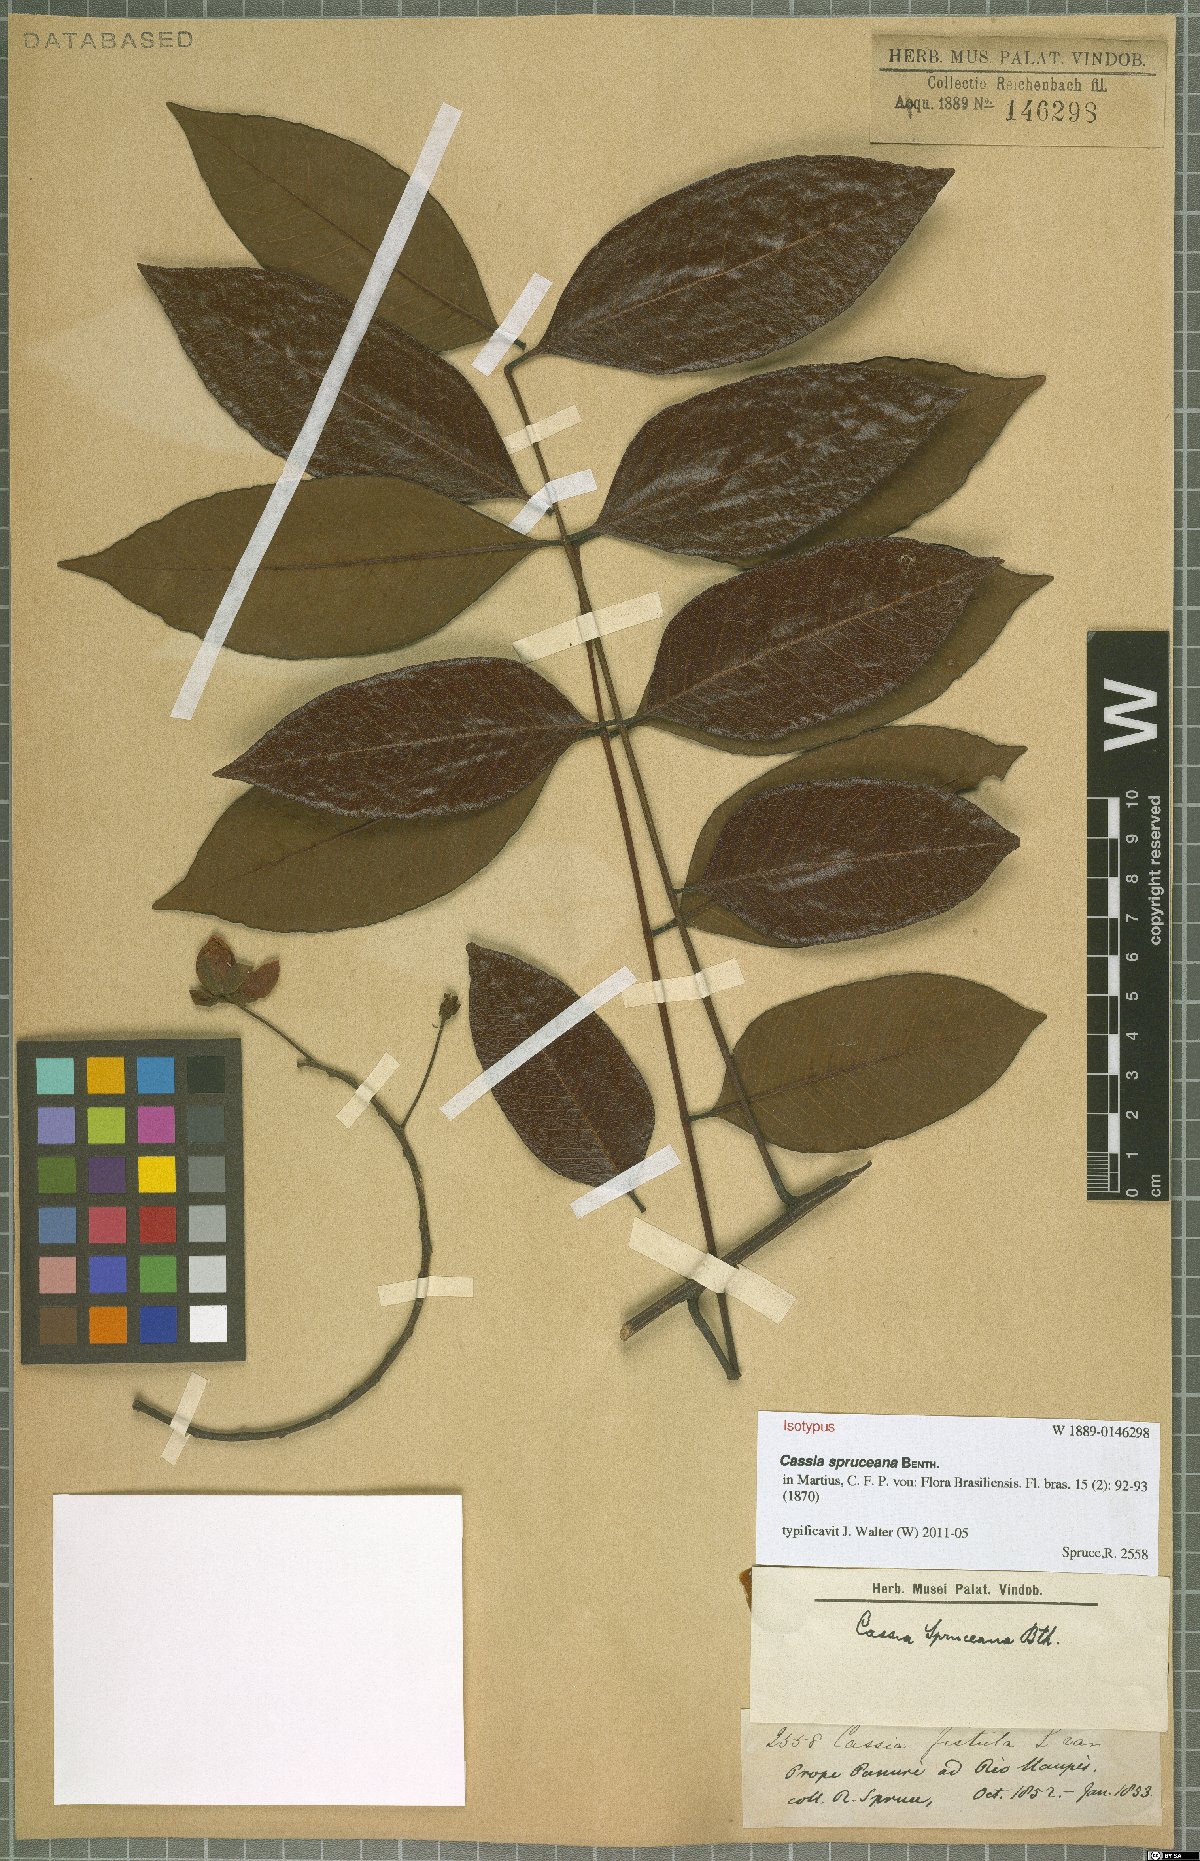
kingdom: Plantae
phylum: Tracheophyta
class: Magnoliopsida
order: Fabales
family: Fabaceae
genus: Cassia
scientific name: Cassia spruceana
